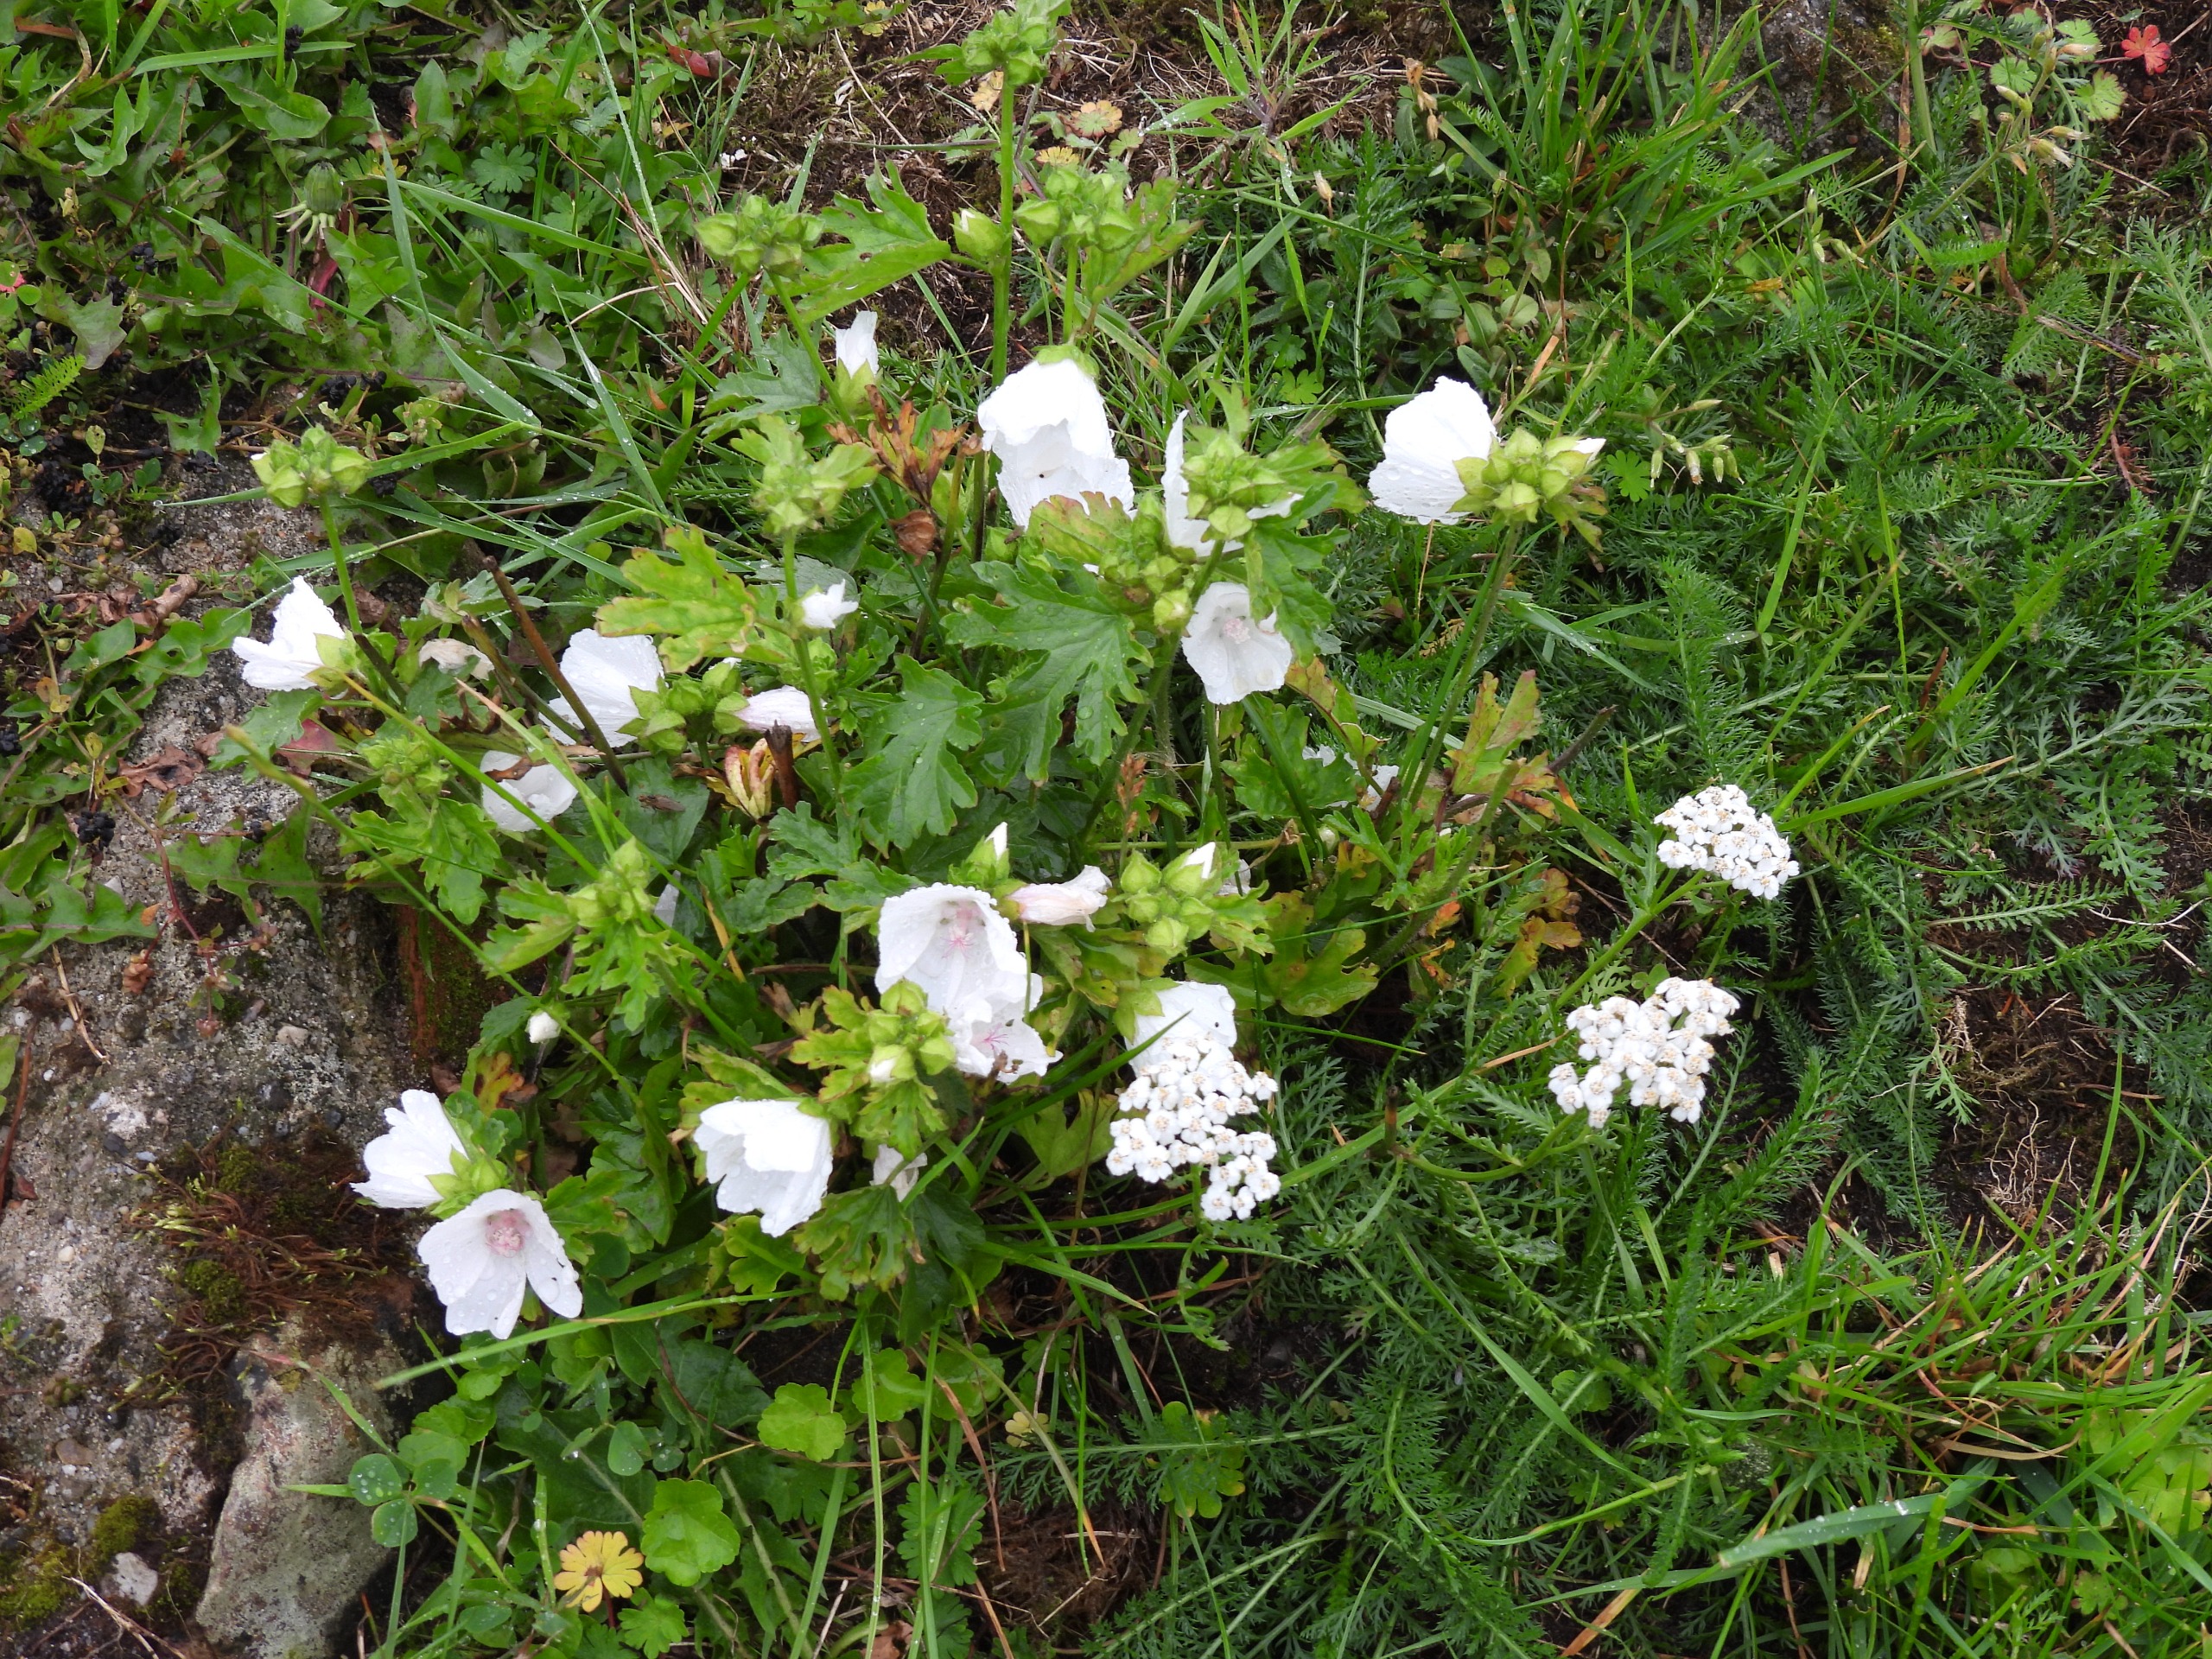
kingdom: Plantae
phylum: Tracheophyta
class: Magnoliopsida
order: Malvales
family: Malvaceae
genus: Malva
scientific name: Malva moschata
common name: Moskus-katost
